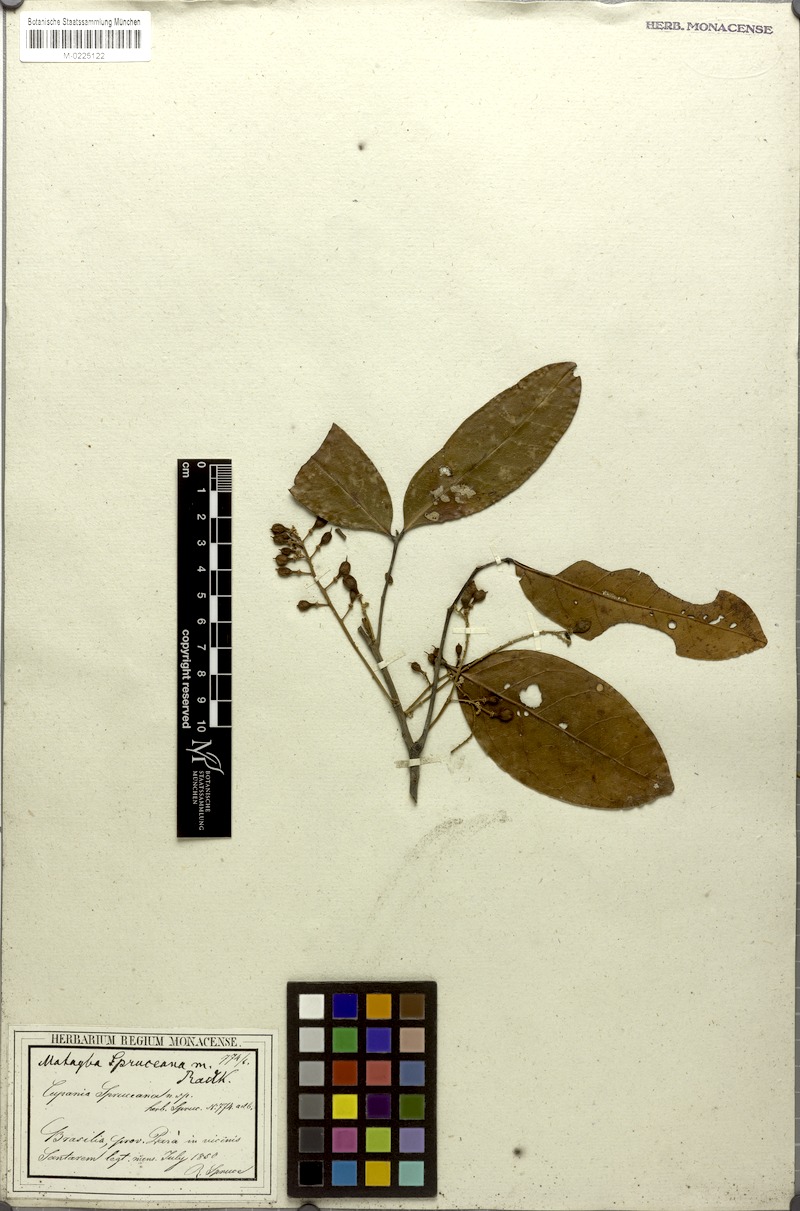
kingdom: Plantae
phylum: Tracheophyta
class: Magnoliopsida
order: Sapindales
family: Sapindaceae
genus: Matayba
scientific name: Matayba spruceana
